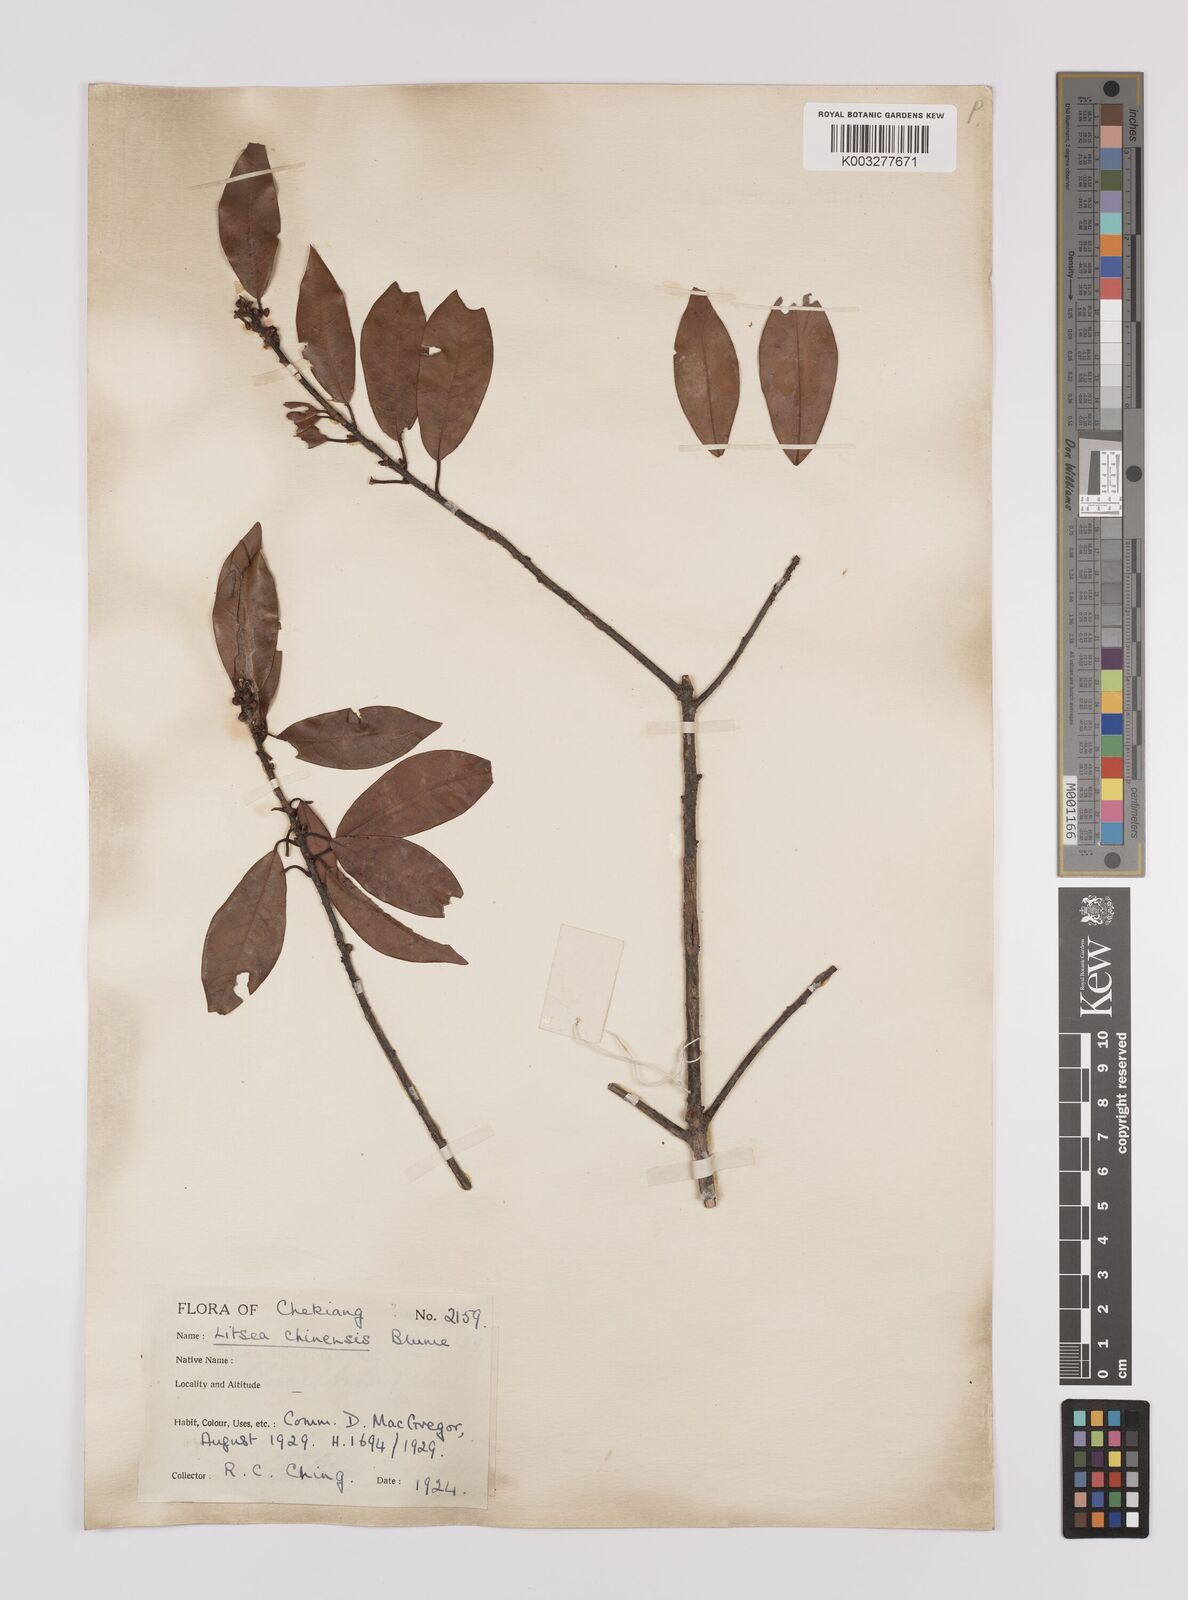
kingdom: Plantae
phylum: Tracheophyta
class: Magnoliopsida
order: Laurales
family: Lauraceae
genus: Litsea
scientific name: Litsea rotundifolia
